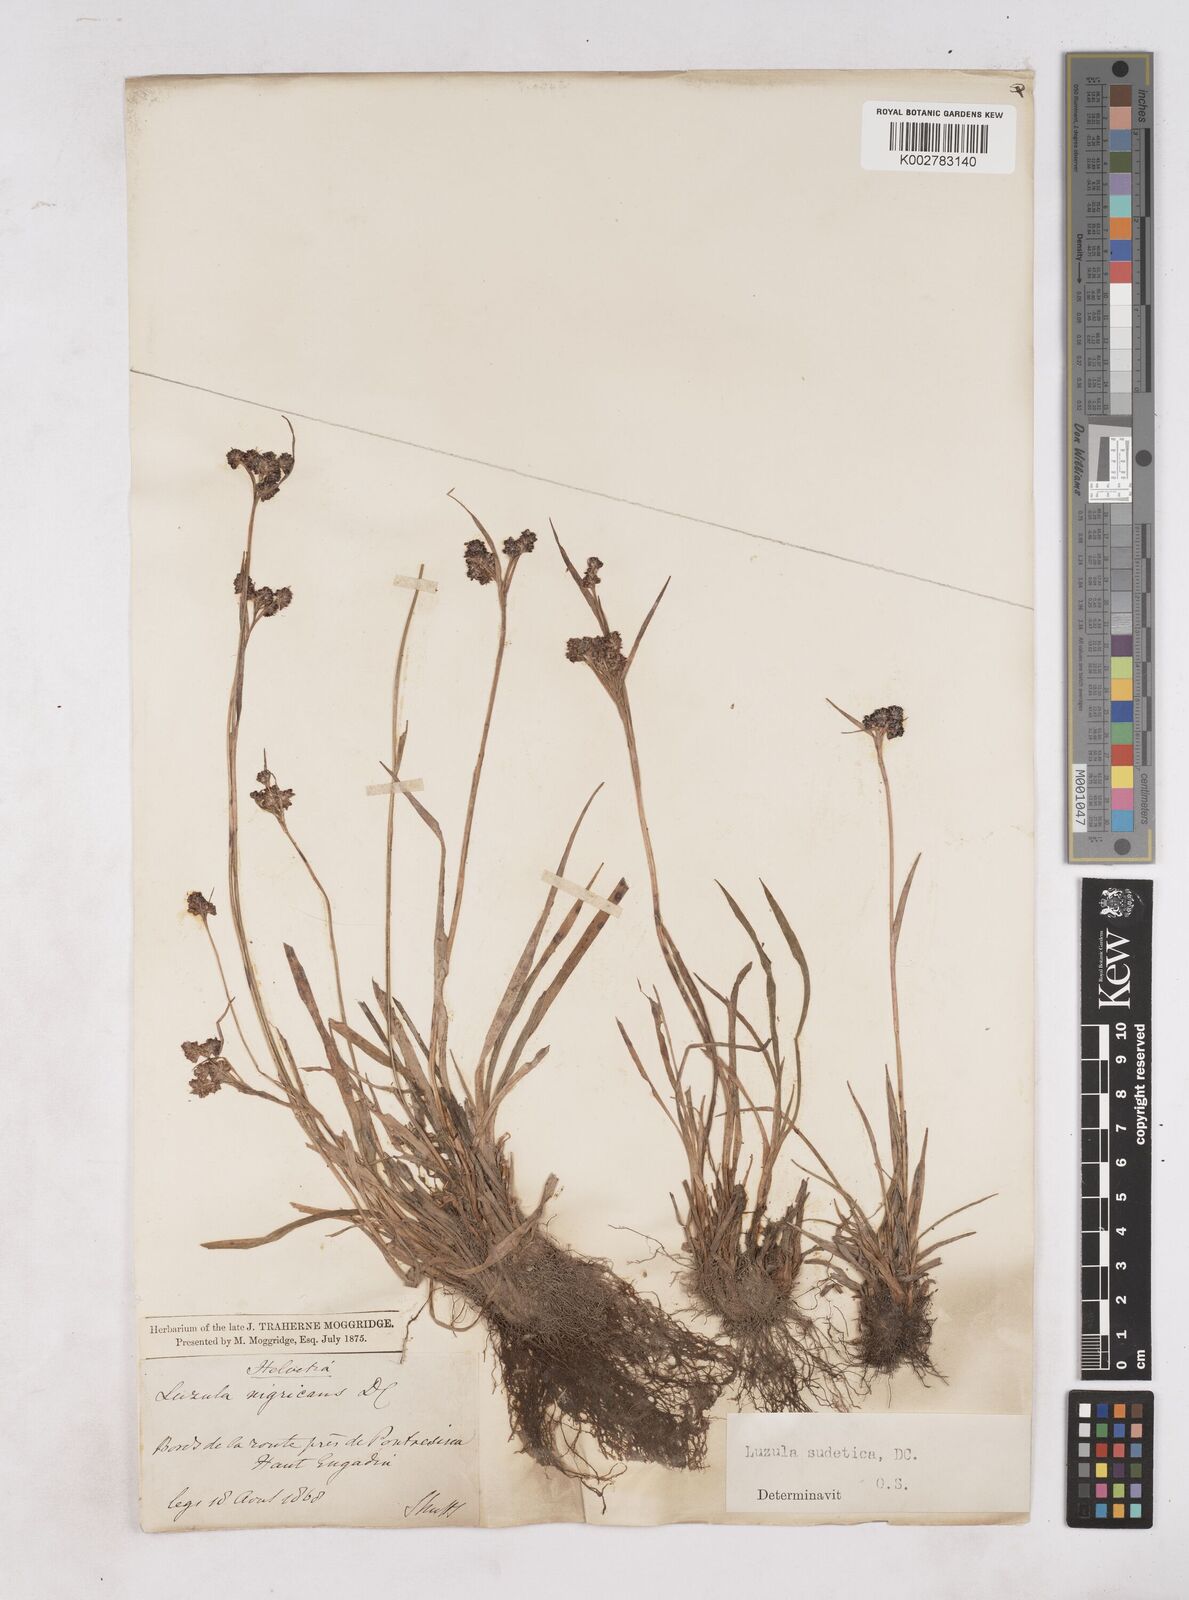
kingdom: Plantae
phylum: Tracheophyta
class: Liliopsida
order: Poales
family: Juncaceae
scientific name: Juncaceae
